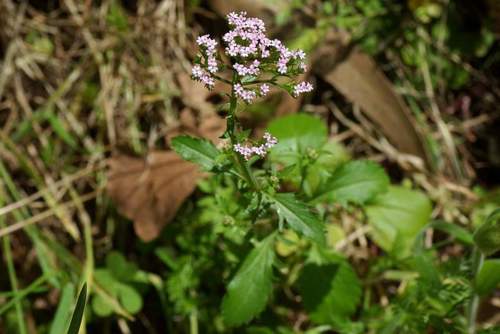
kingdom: Plantae
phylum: Tracheophyta
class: Magnoliopsida
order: Dipsacales
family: Caprifoliaceae
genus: Centranthus
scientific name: Centranthus calcitrapae
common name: Annual valerian
